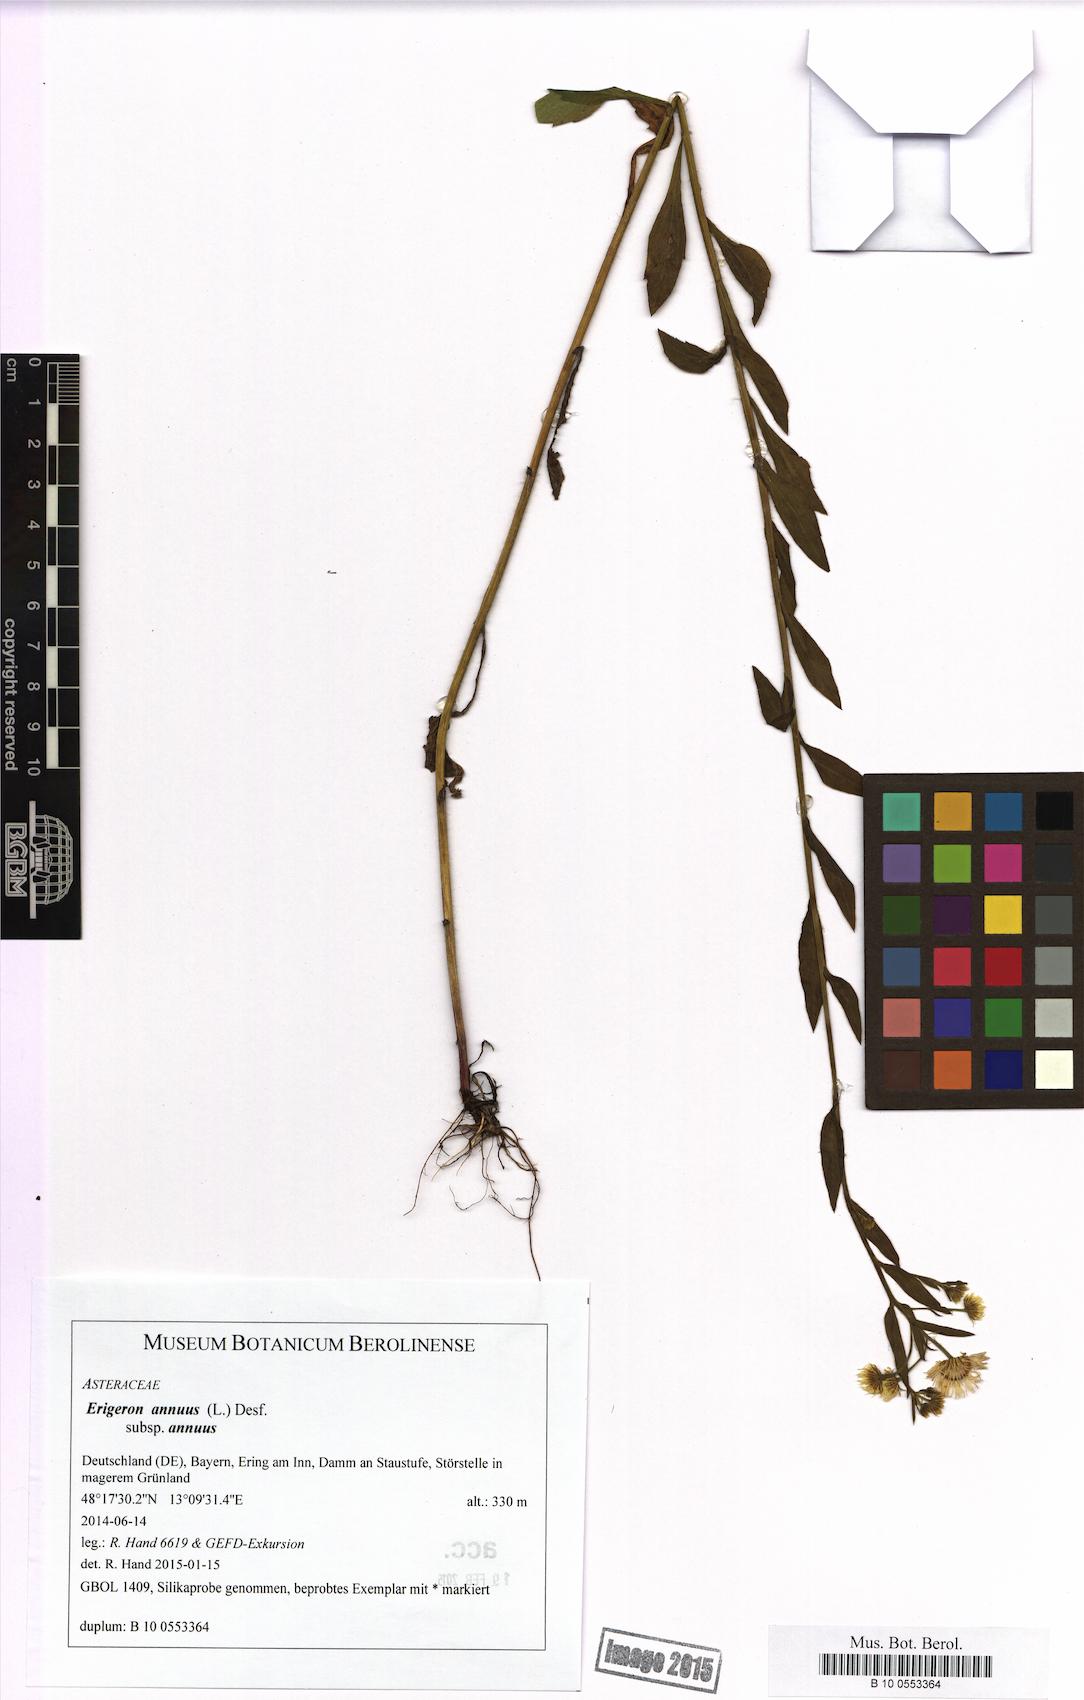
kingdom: Plantae
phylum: Tracheophyta
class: Magnoliopsida
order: Asterales
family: Asteraceae
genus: Erigeron
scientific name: Erigeron annuus
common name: Tall fleabane
